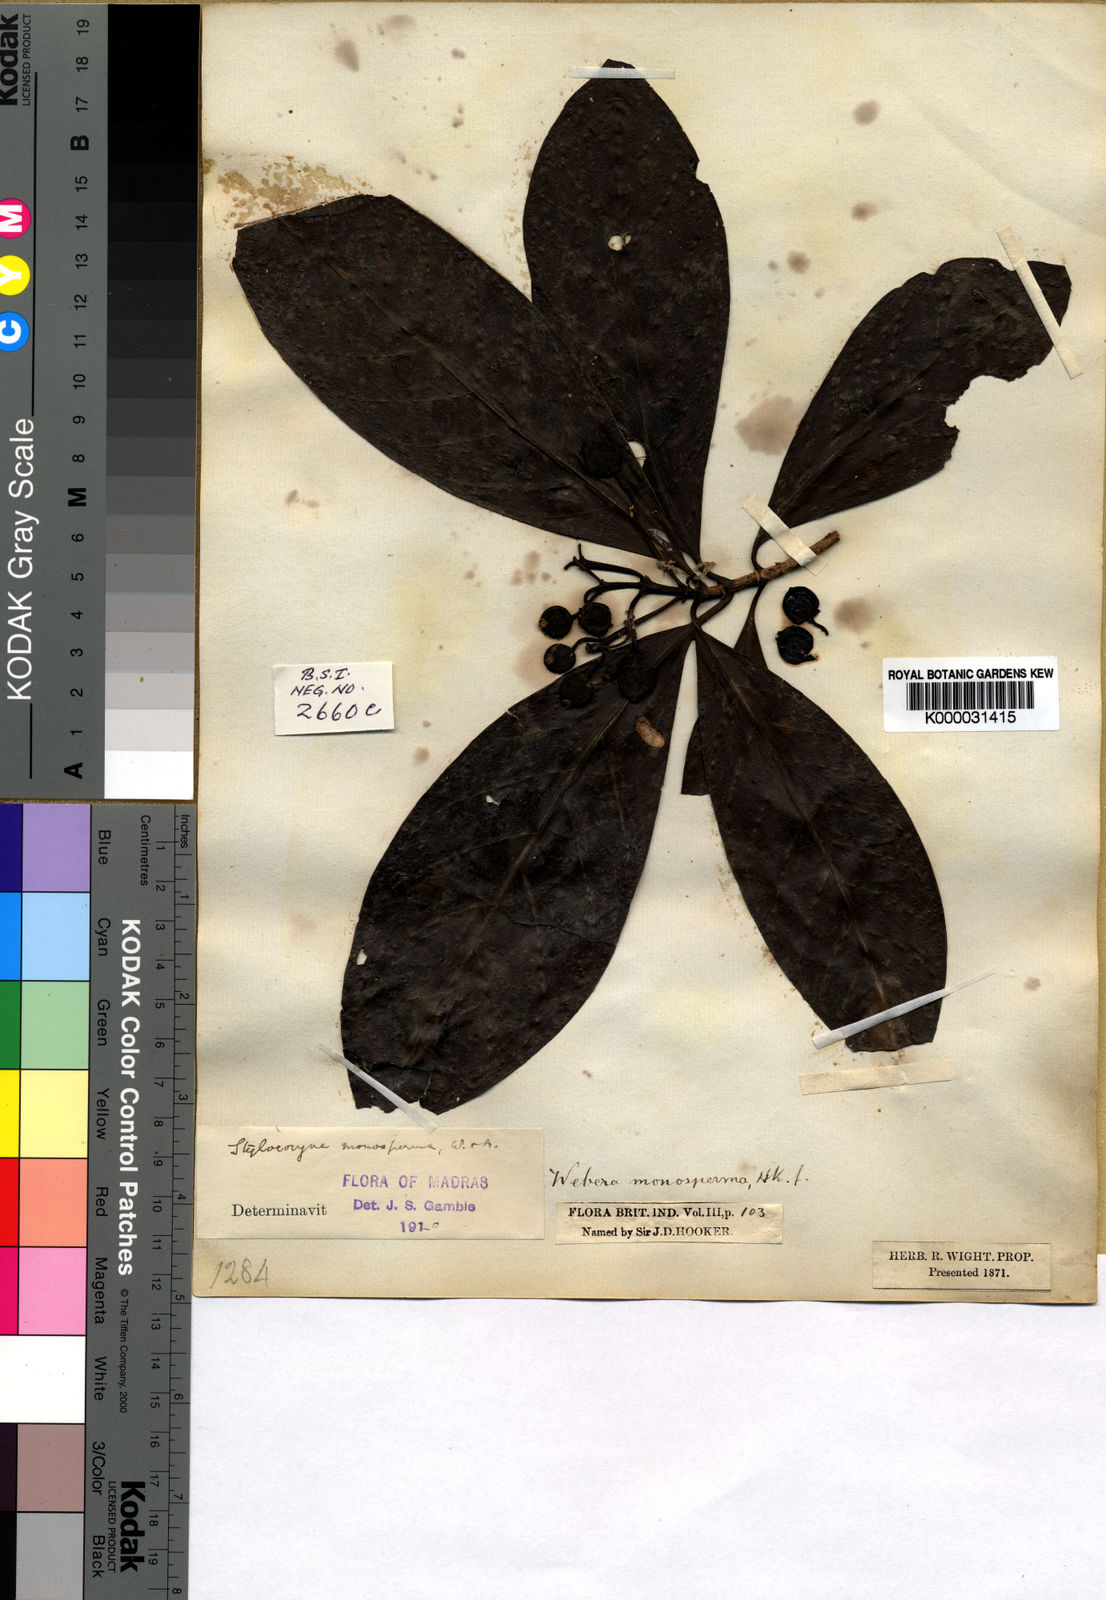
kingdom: Plantae
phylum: Tracheophyta
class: Magnoliopsida
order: Gentianales
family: Rubiaceae
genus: Tarenna
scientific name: Tarenna monosperma
